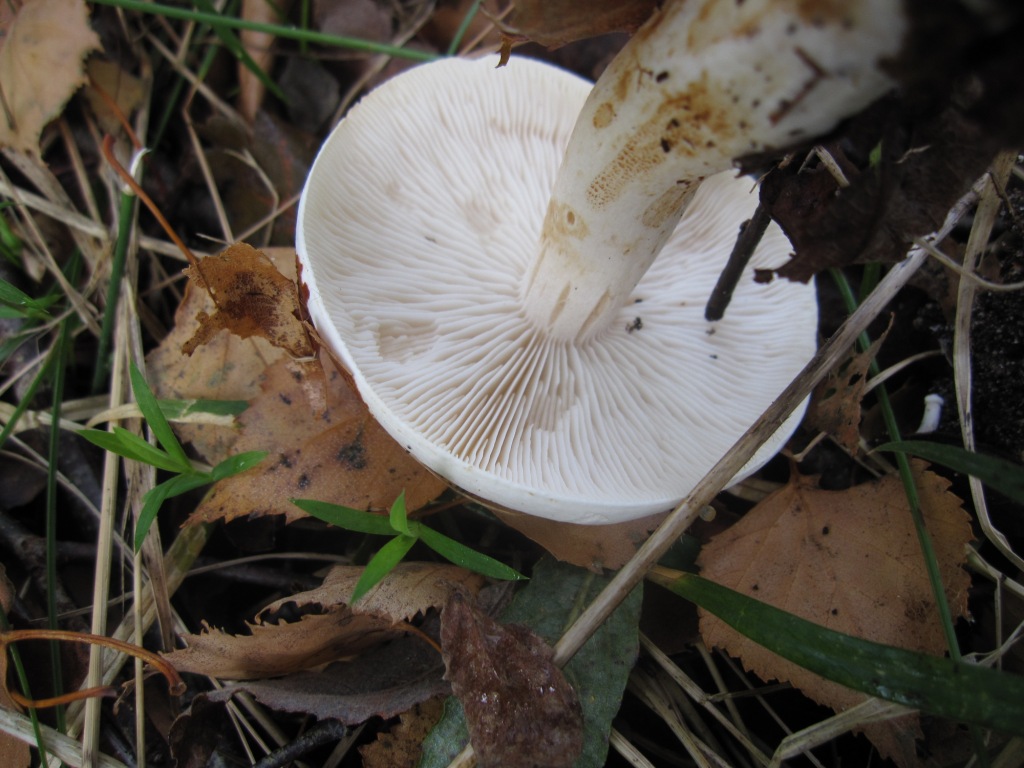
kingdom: Fungi
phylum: Basidiomycota
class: Agaricomycetes
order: Agaricales
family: Tricholomataceae
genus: Tricholoma
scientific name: Tricholoma stiparophyllum
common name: hvid ridderhat
